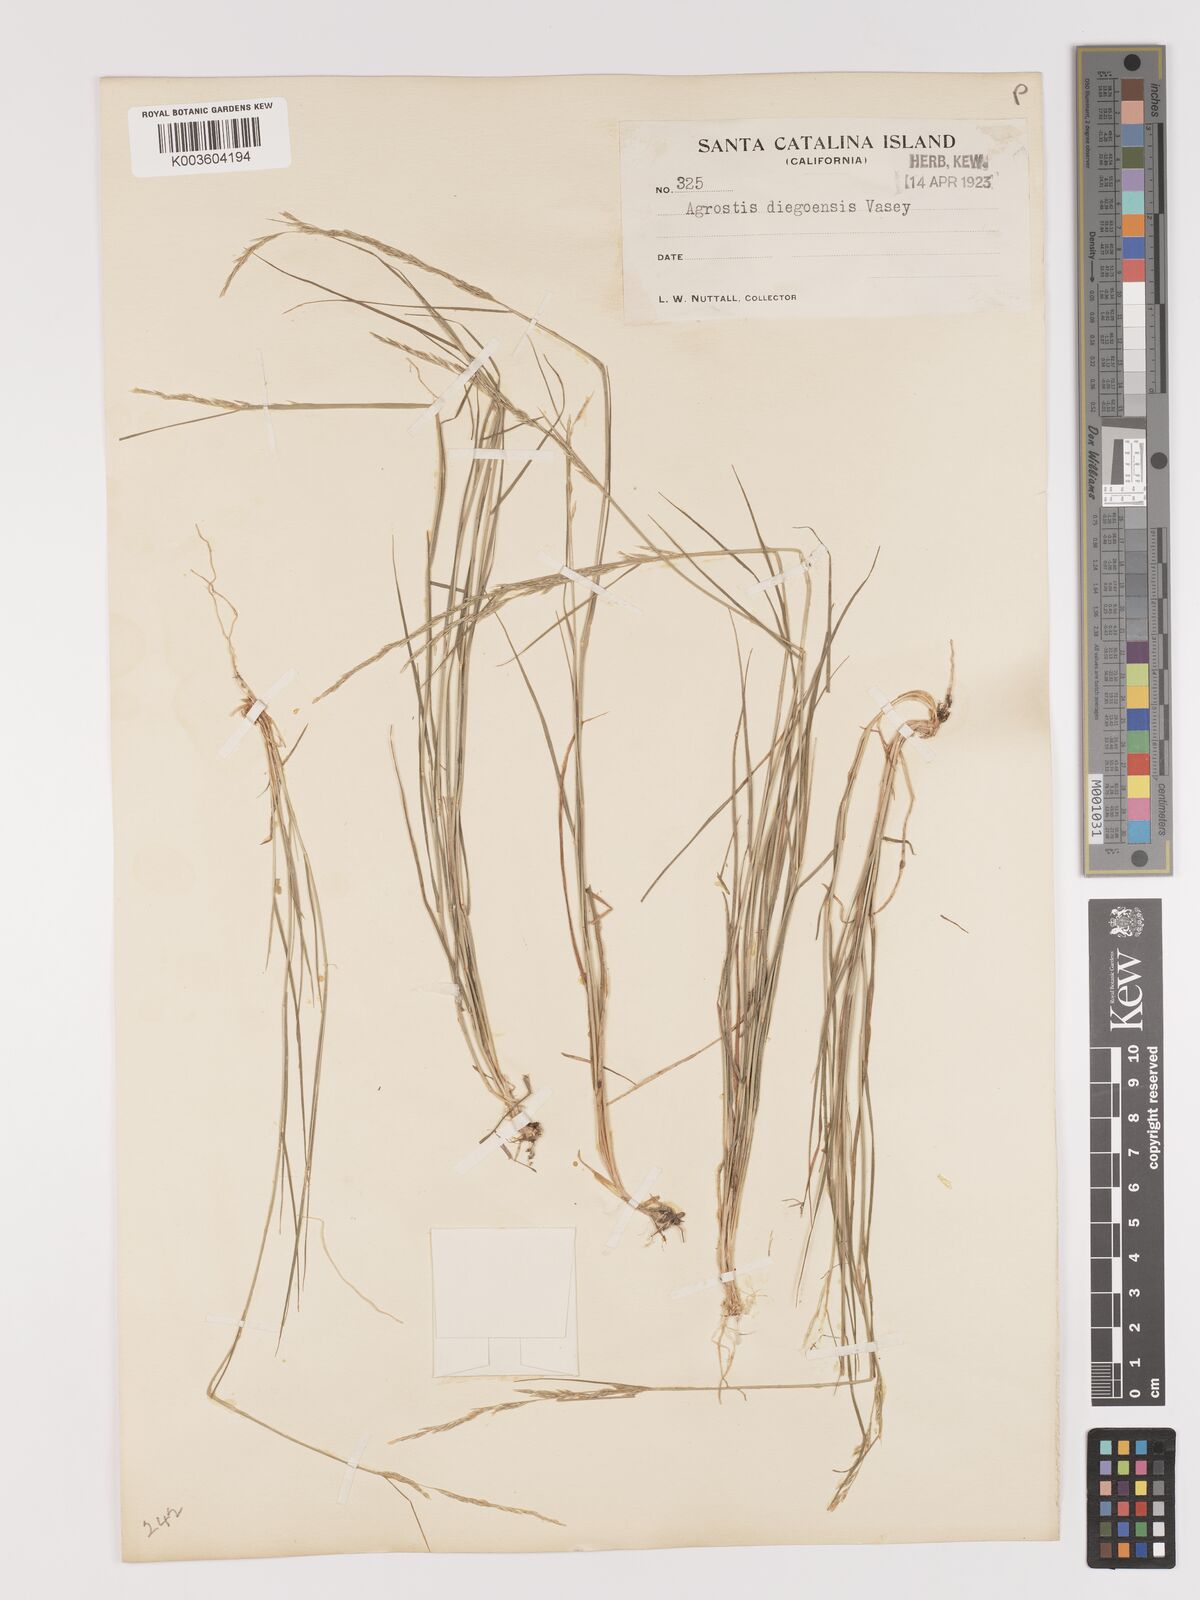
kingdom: Plantae
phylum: Tracheophyta
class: Liliopsida
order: Poales
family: Poaceae
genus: Agrostis
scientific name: Agrostis pallens
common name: Dune bent
